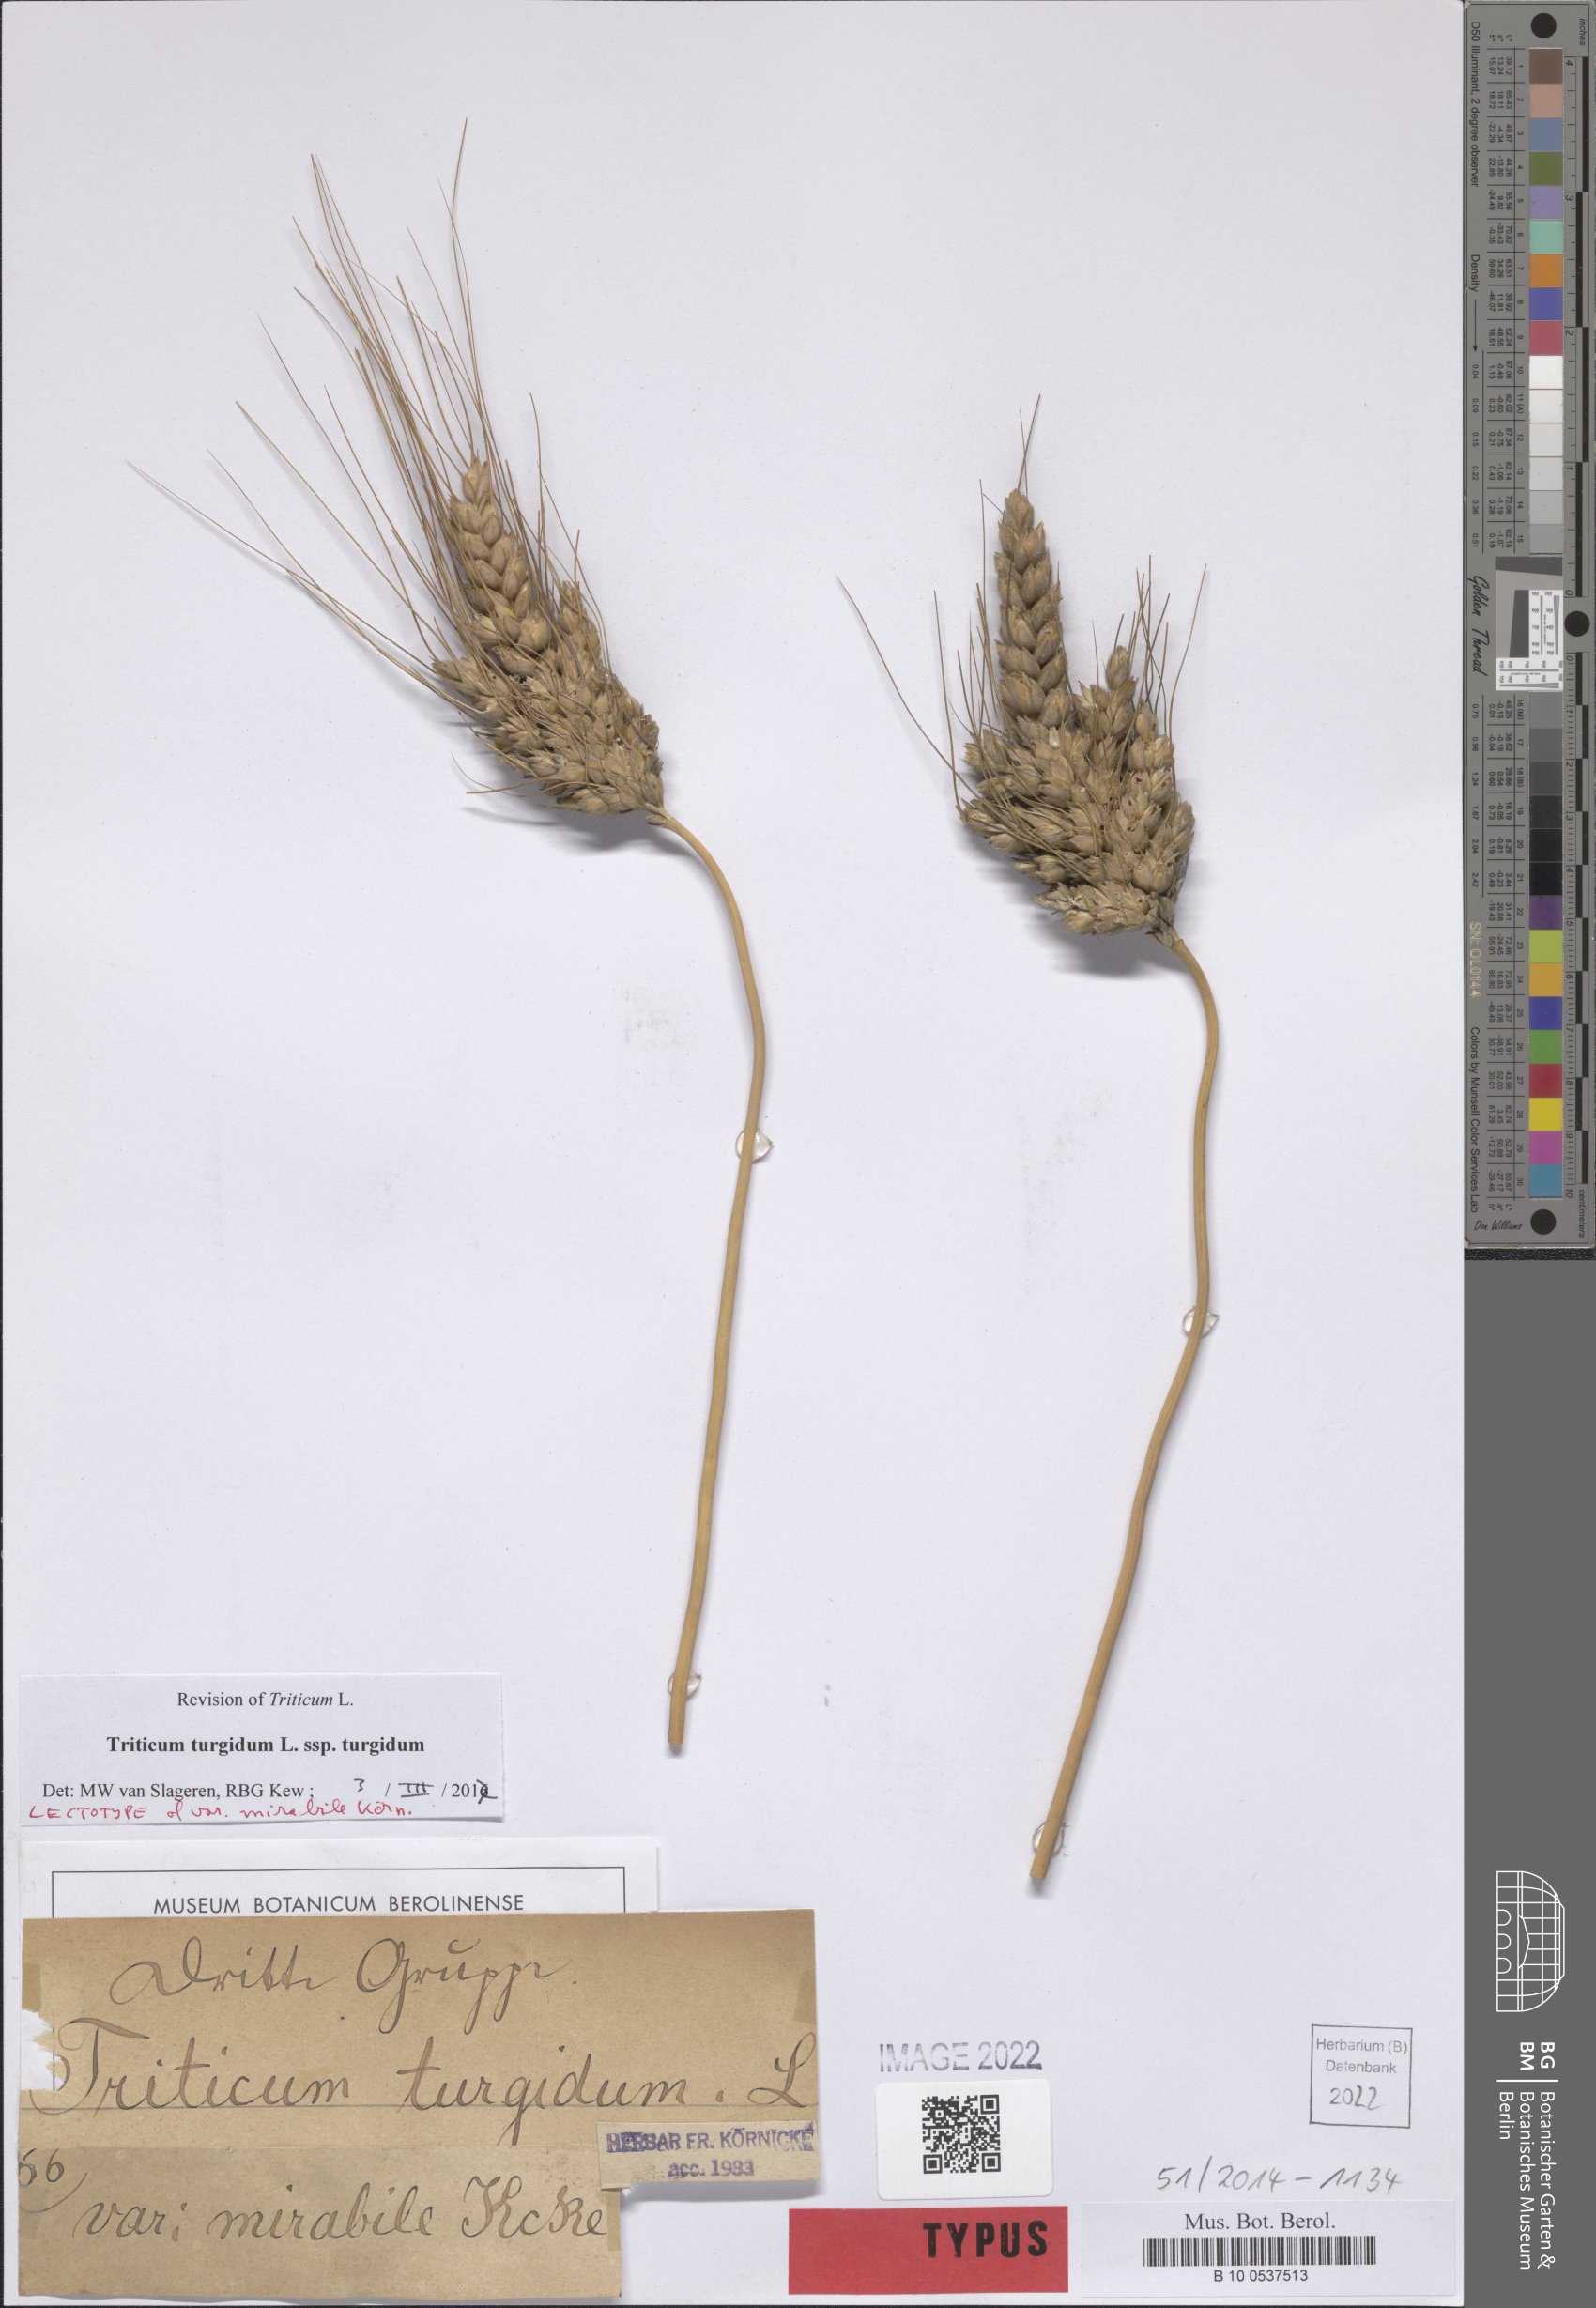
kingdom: Plantae
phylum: Tracheophyta
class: Liliopsida
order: Poales
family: Poaceae
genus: Triticum
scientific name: Triticum turgidum
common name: Rivet wheat
